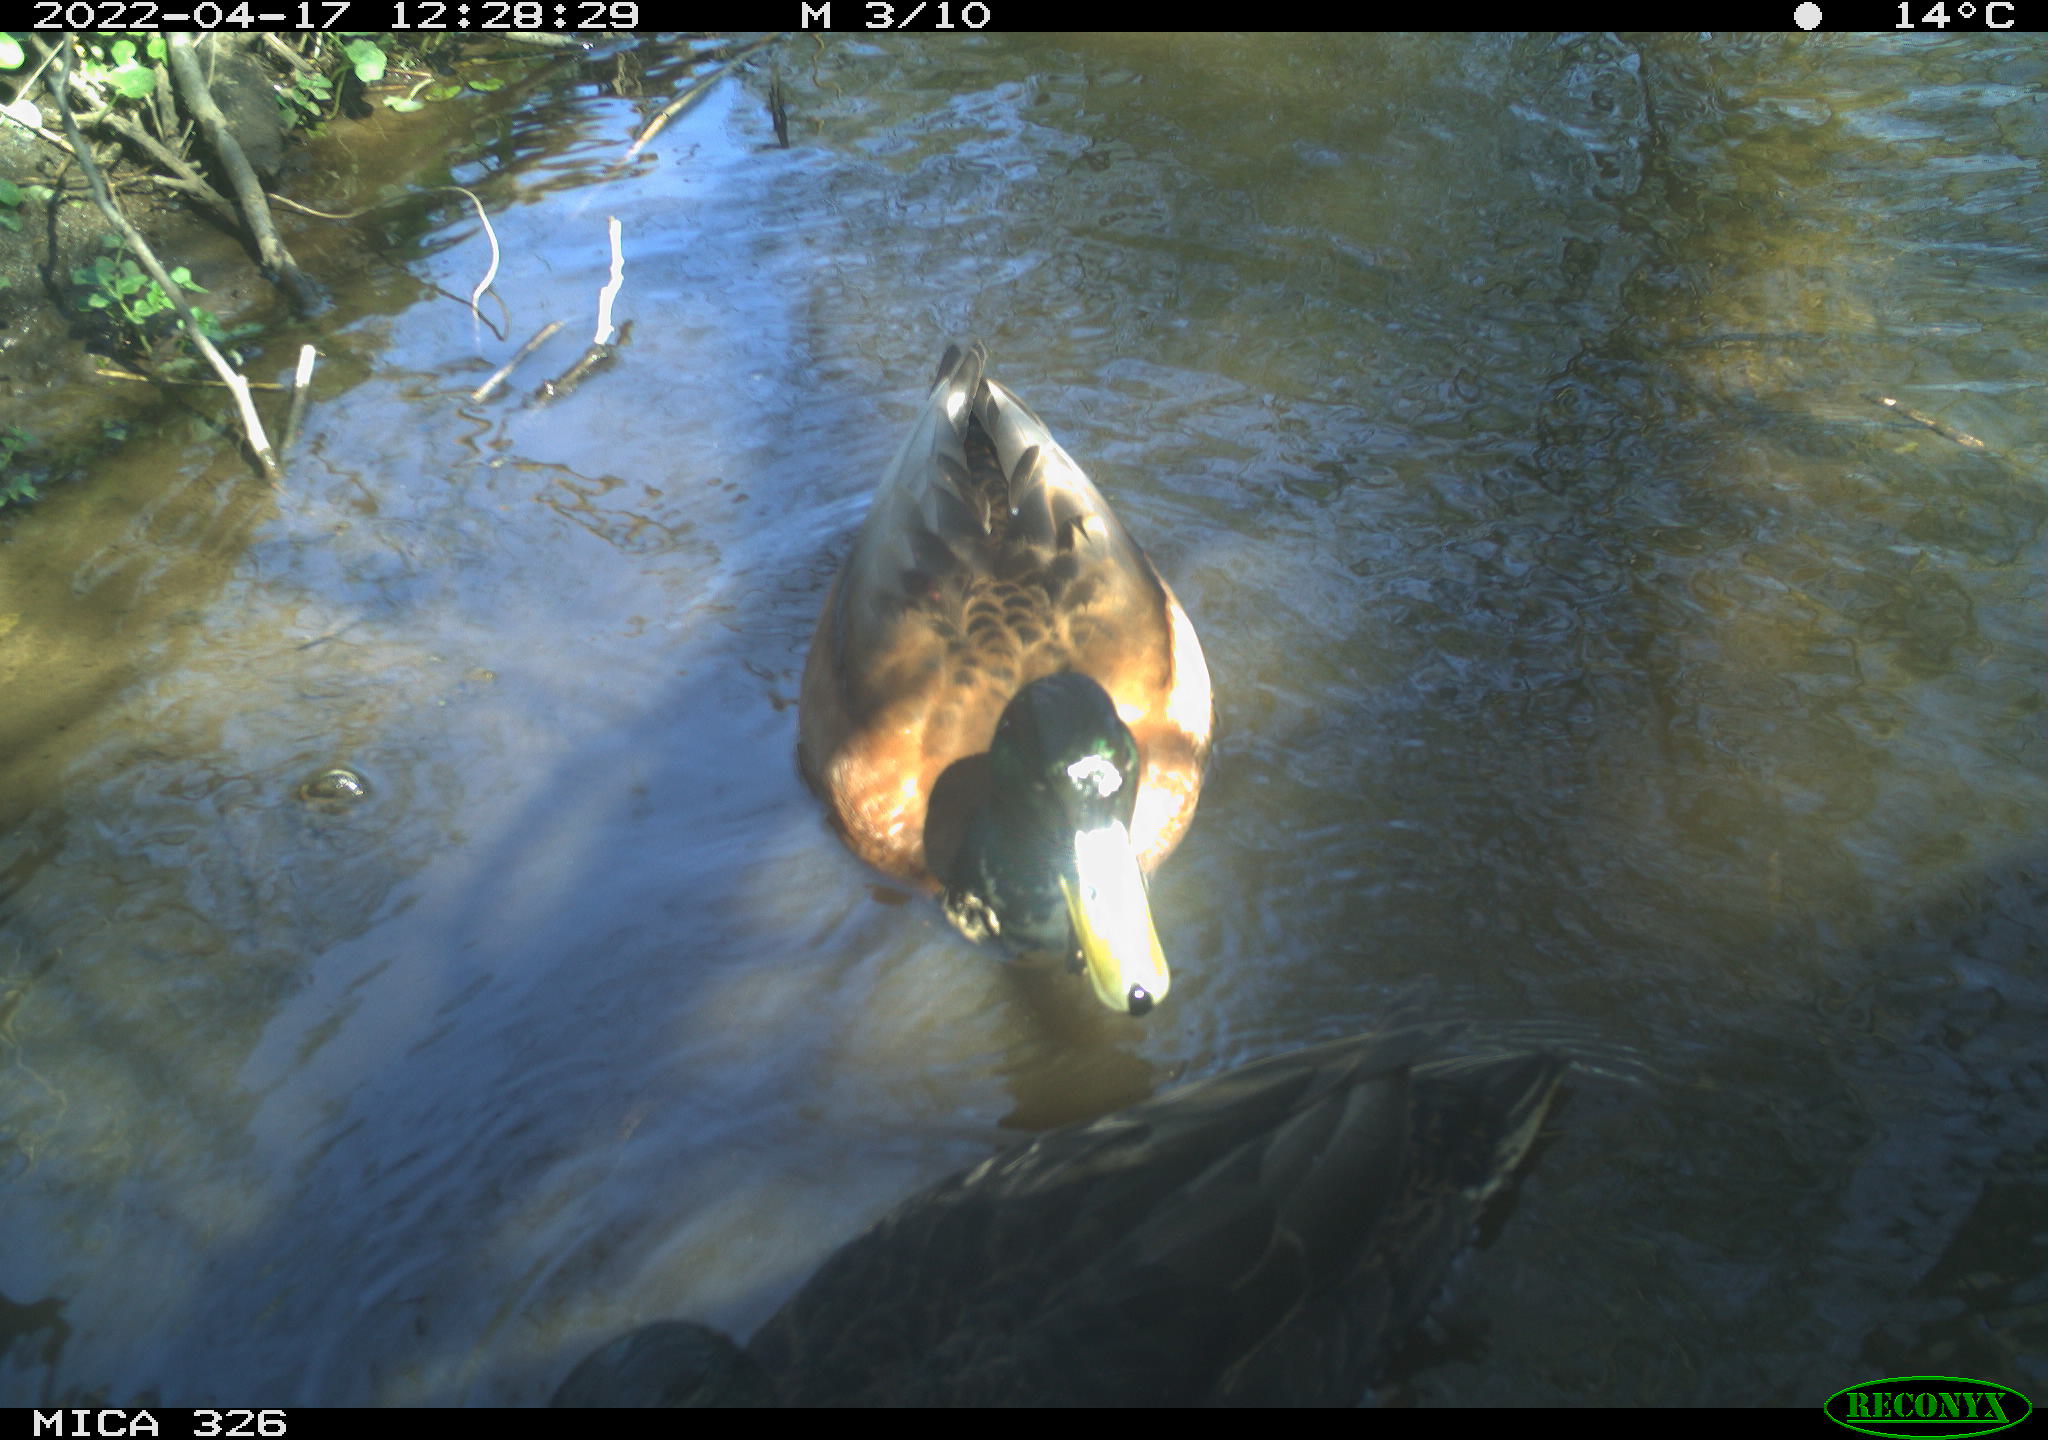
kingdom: Animalia
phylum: Chordata
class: Aves
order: Anseriformes
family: Anatidae
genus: Anas
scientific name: Anas
